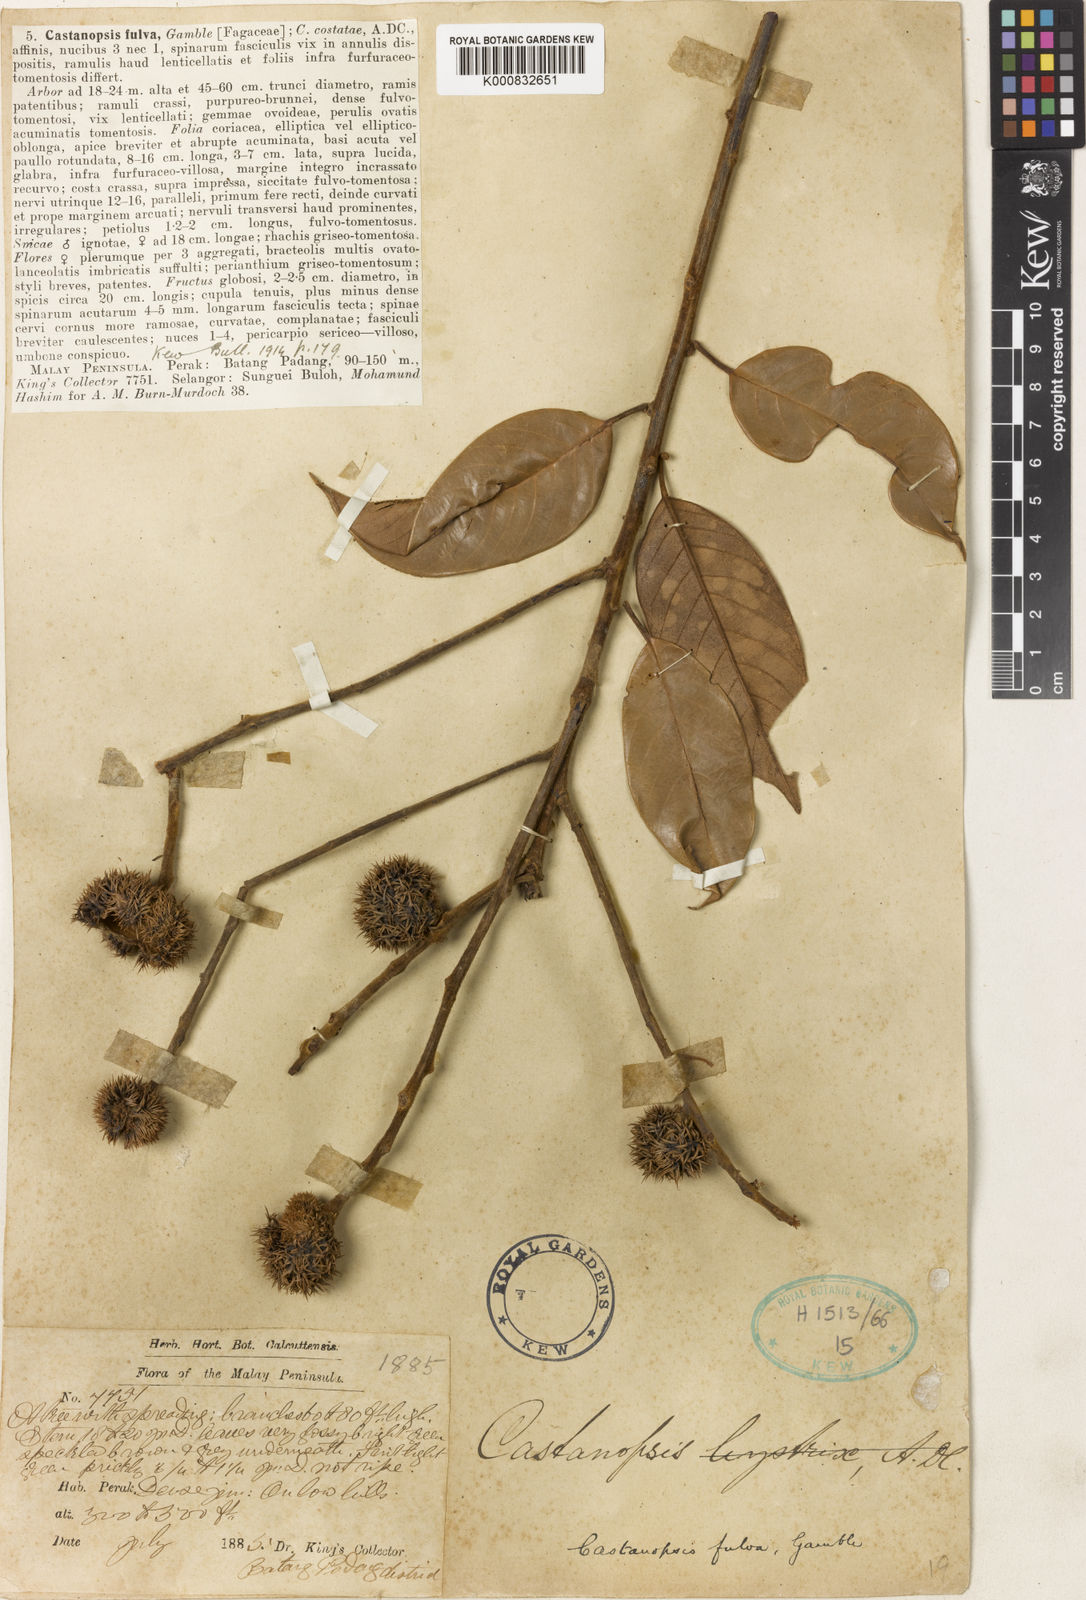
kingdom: Plantae
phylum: Tracheophyta
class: Magnoliopsida
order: Fagales
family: Fagaceae
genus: Castanopsis
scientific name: Castanopsis fulva
